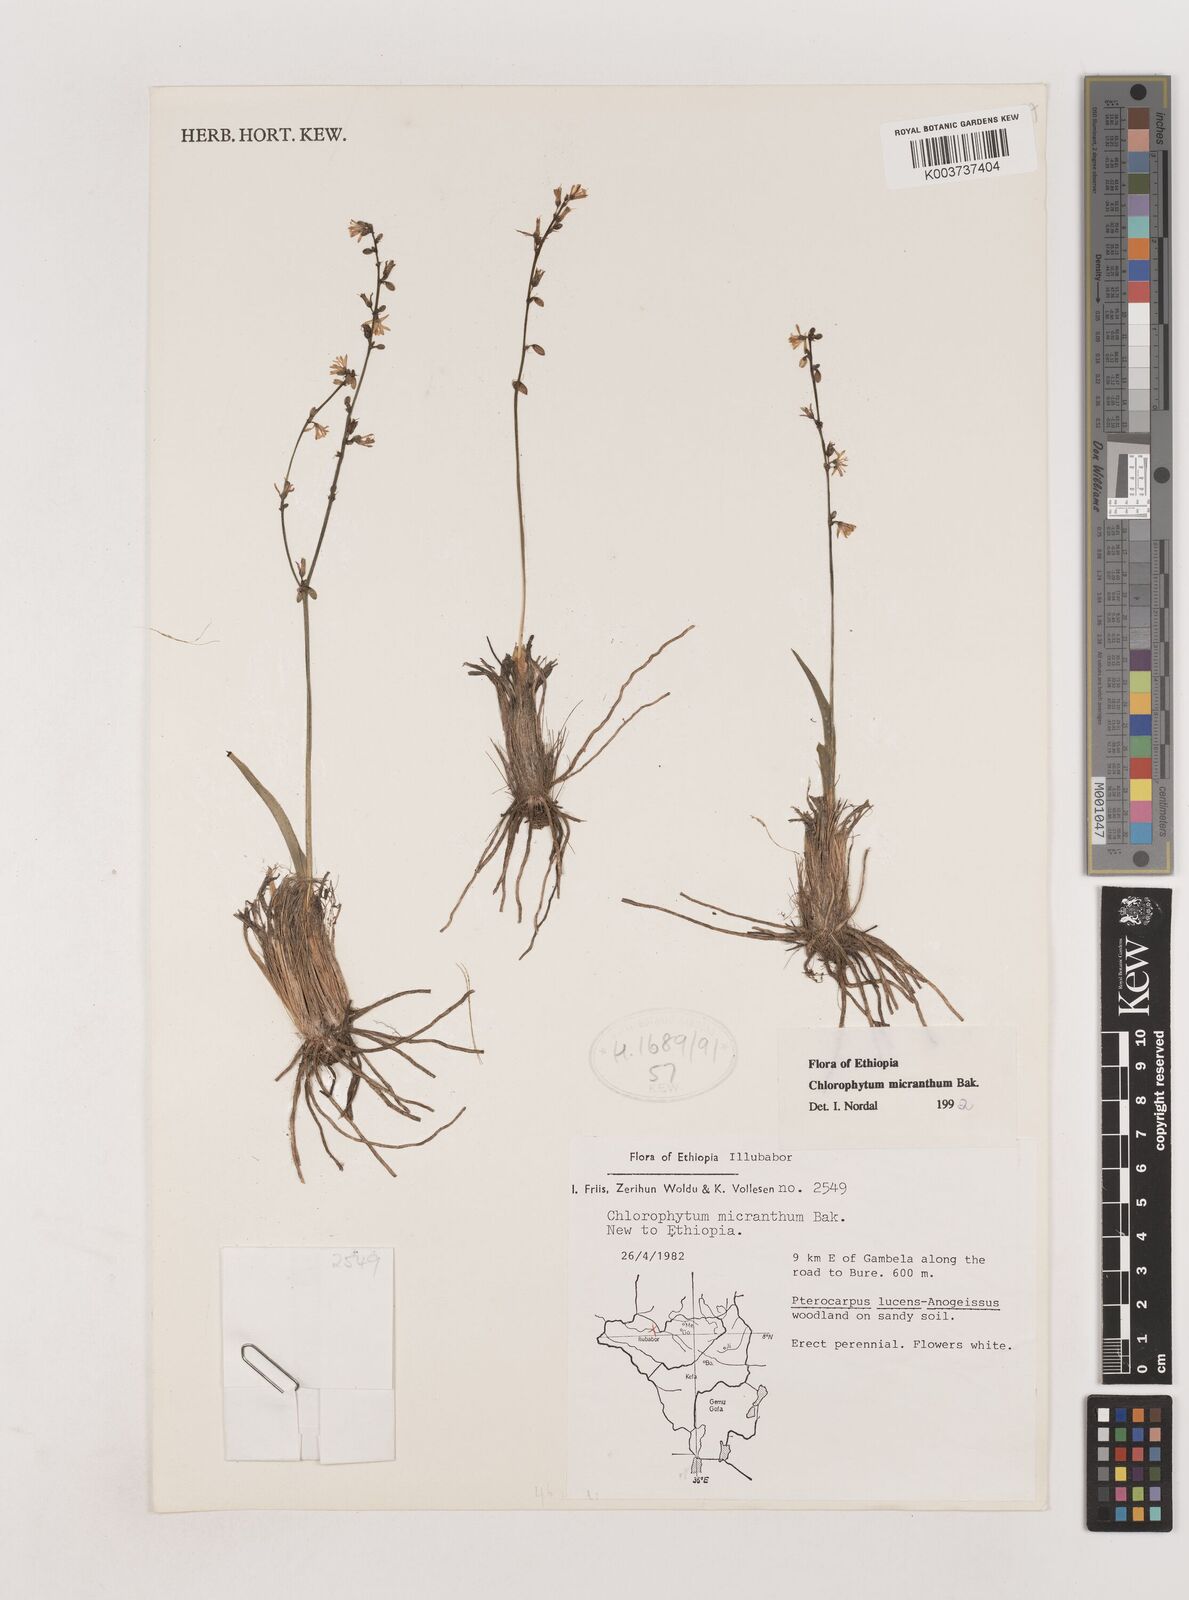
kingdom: Plantae
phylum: Tracheophyta
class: Liliopsida
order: Asparagales
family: Asparagaceae
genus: Chlorophytum
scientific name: Chlorophytum gallabatense
